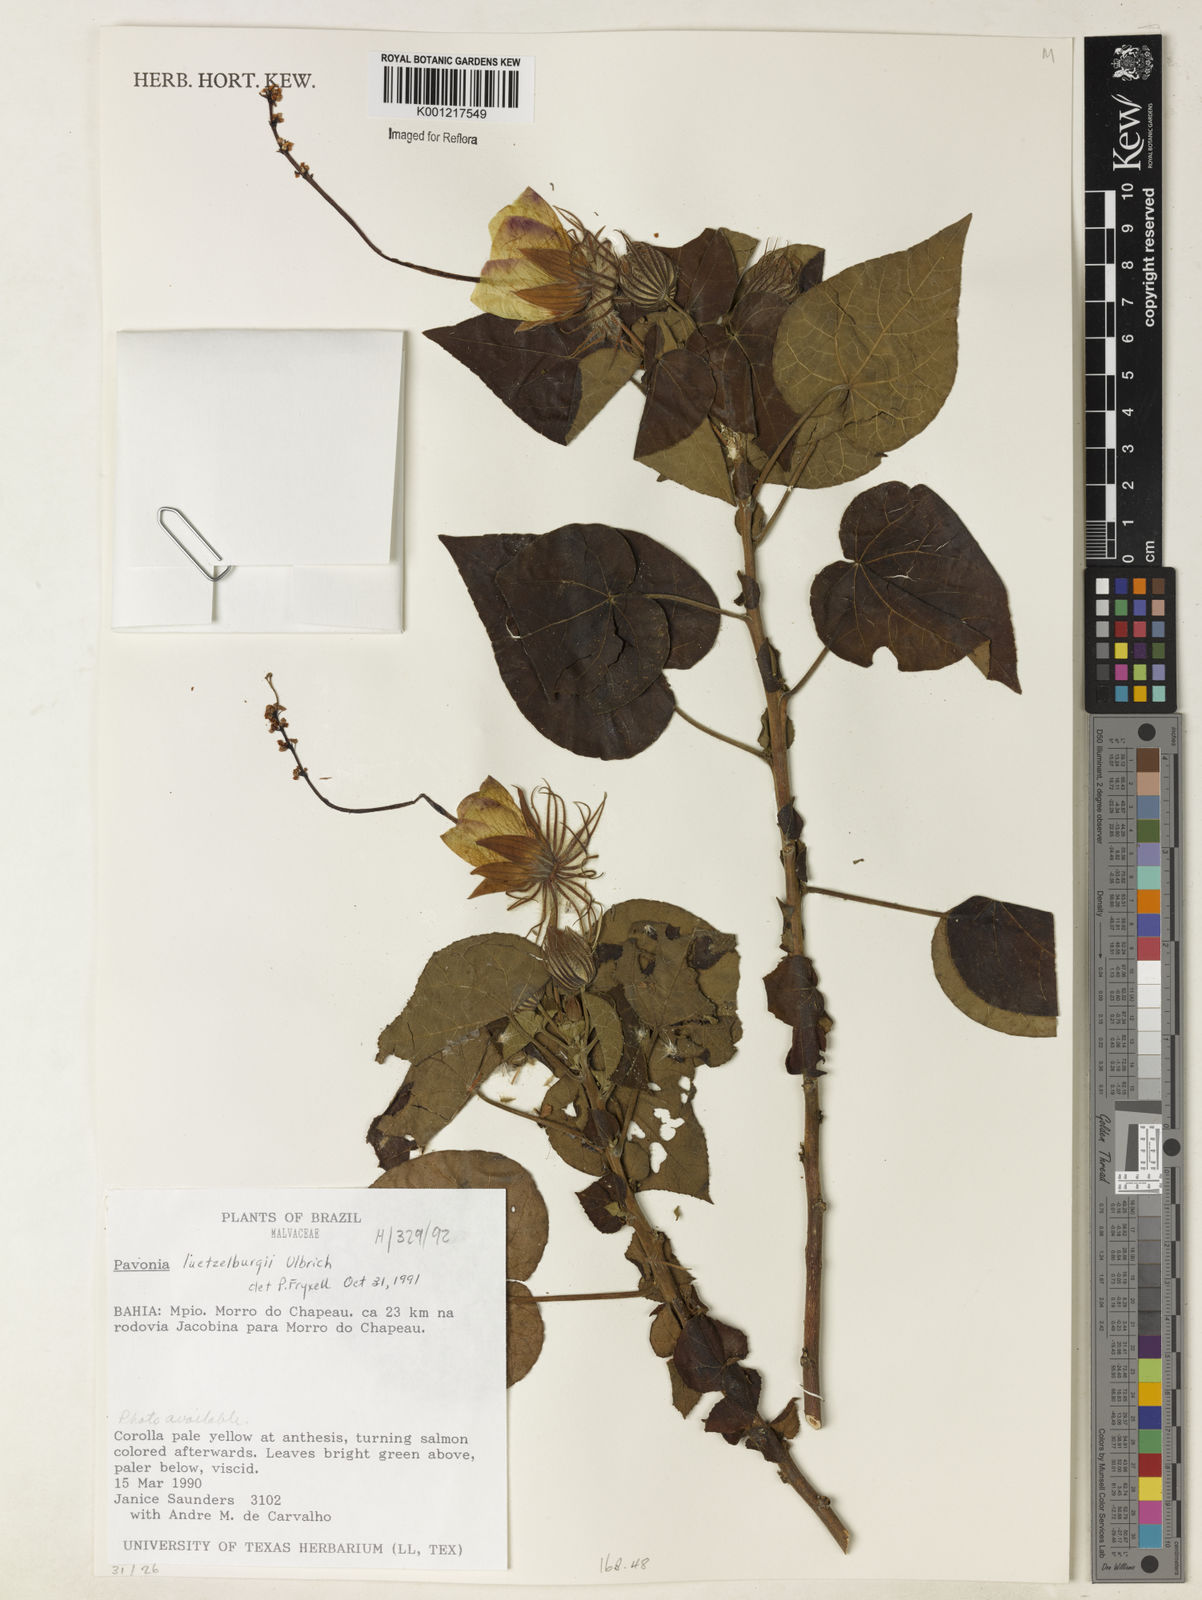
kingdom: Plantae
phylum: Tracheophyta
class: Magnoliopsida
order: Malvales
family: Malvaceae
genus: Pavonia
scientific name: Pavonia luetzelburgii
